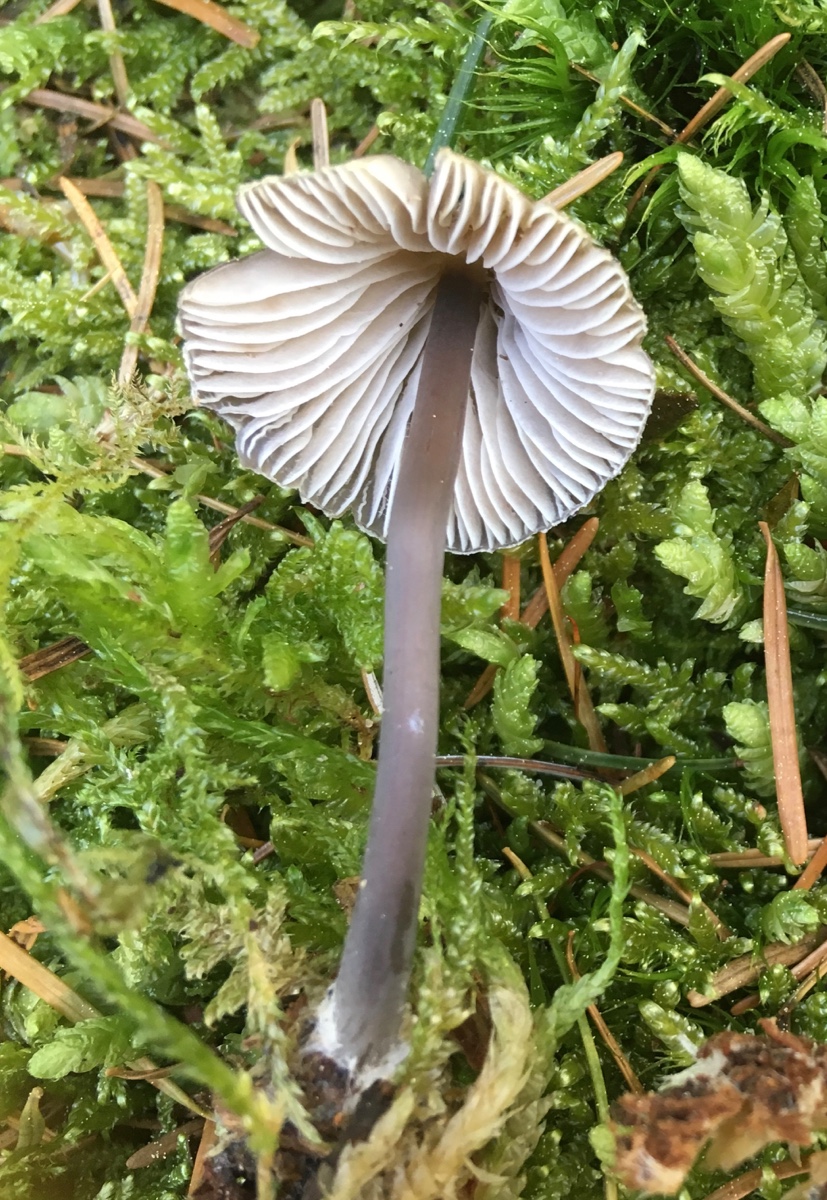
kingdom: Fungi
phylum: Basidiomycota
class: Agaricomycetes
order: Agaricales
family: Mycenaceae
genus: Mycena
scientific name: Mycena silvae-nigrae
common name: tidlig huesvamp
